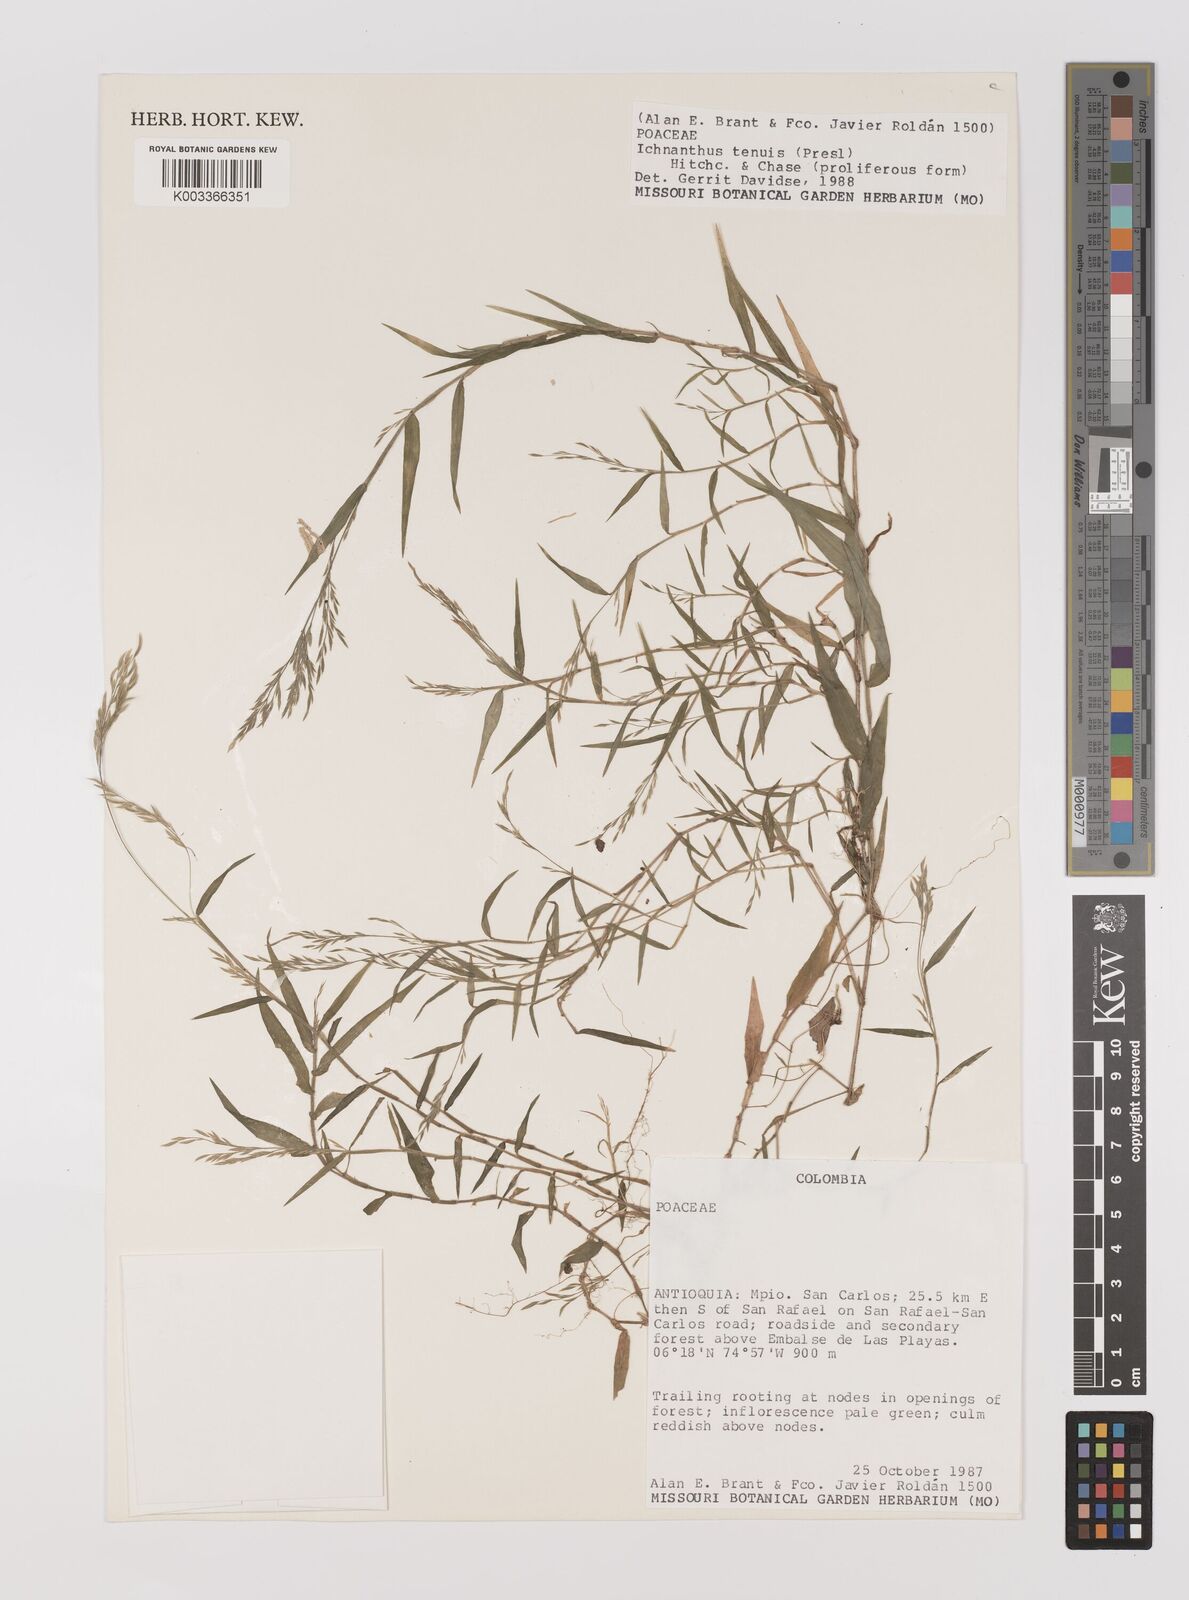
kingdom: Plantae
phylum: Tracheophyta
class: Liliopsida
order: Poales
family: Poaceae
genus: Ichnanthus
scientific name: Ichnanthus tenuis
